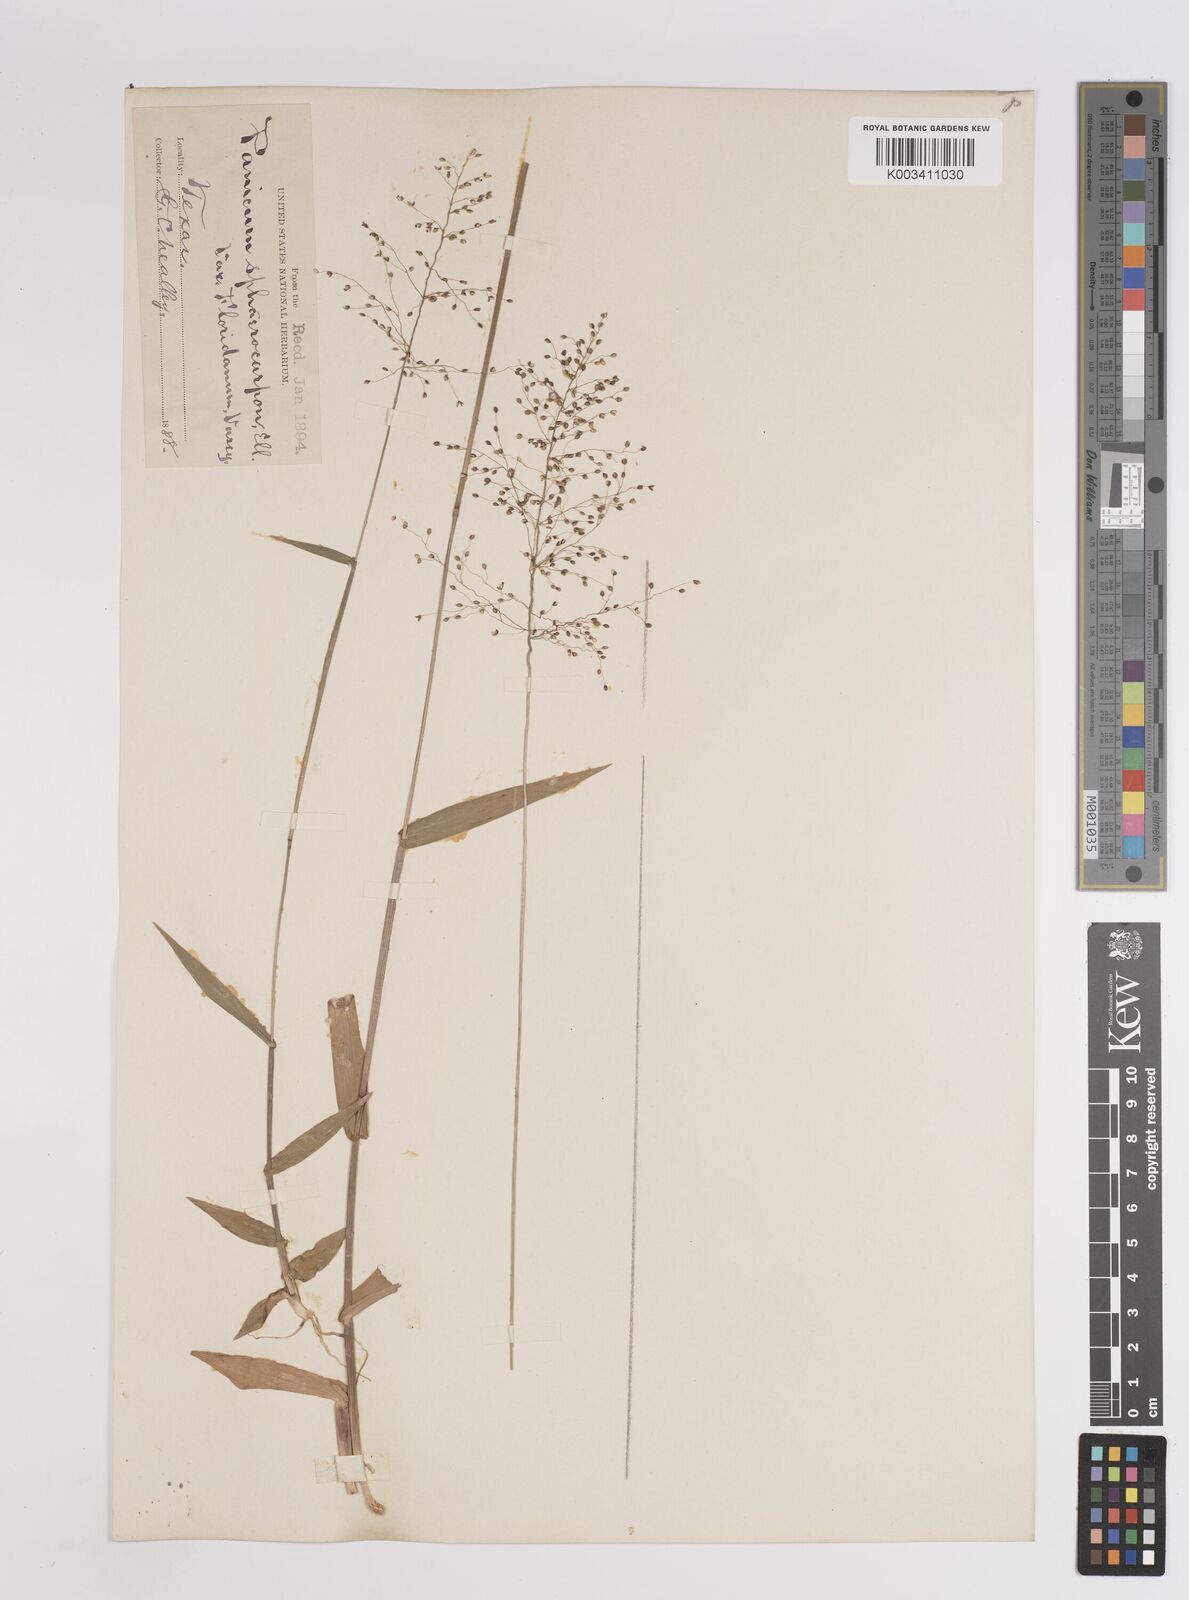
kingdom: Plantae
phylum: Tracheophyta
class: Liliopsida
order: Poales
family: Poaceae
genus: Setaria
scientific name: Setaria tenax
